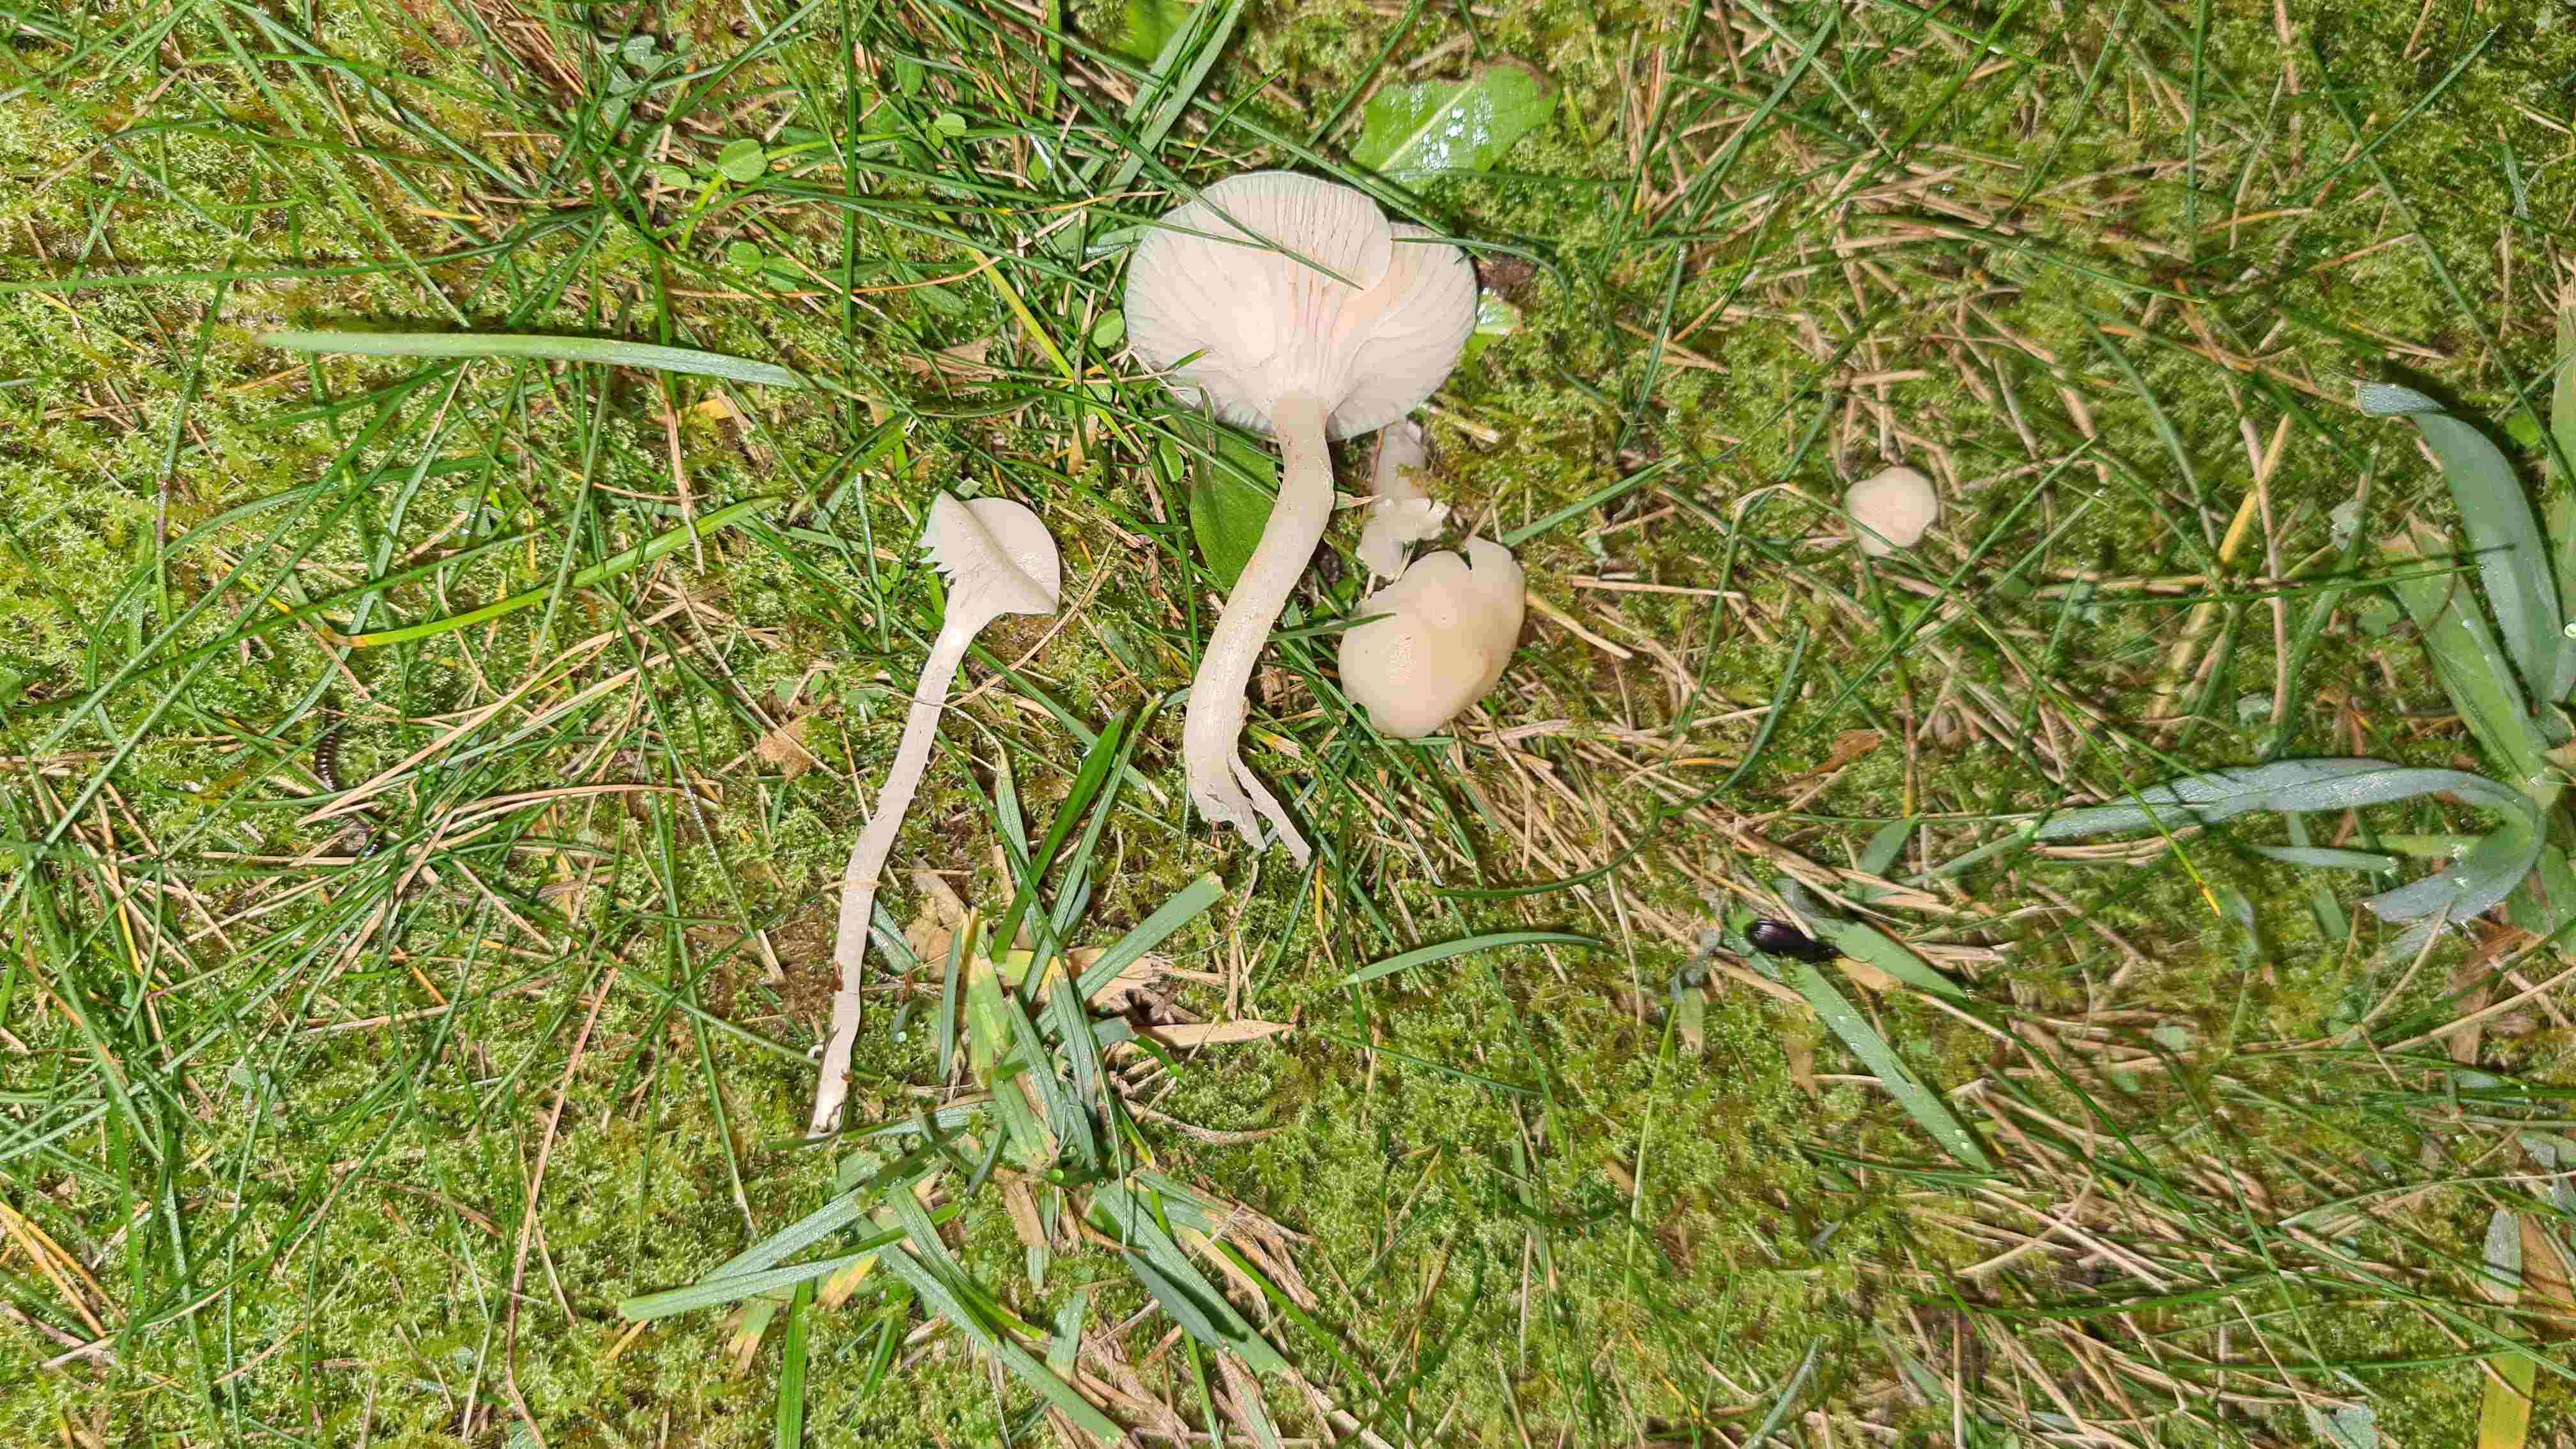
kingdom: Fungi
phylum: Basidiomycota
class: Agaricomycetes
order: Agaricales
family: Hygrophoraceae
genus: Cuphophyllus
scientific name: Cuphophyllus
